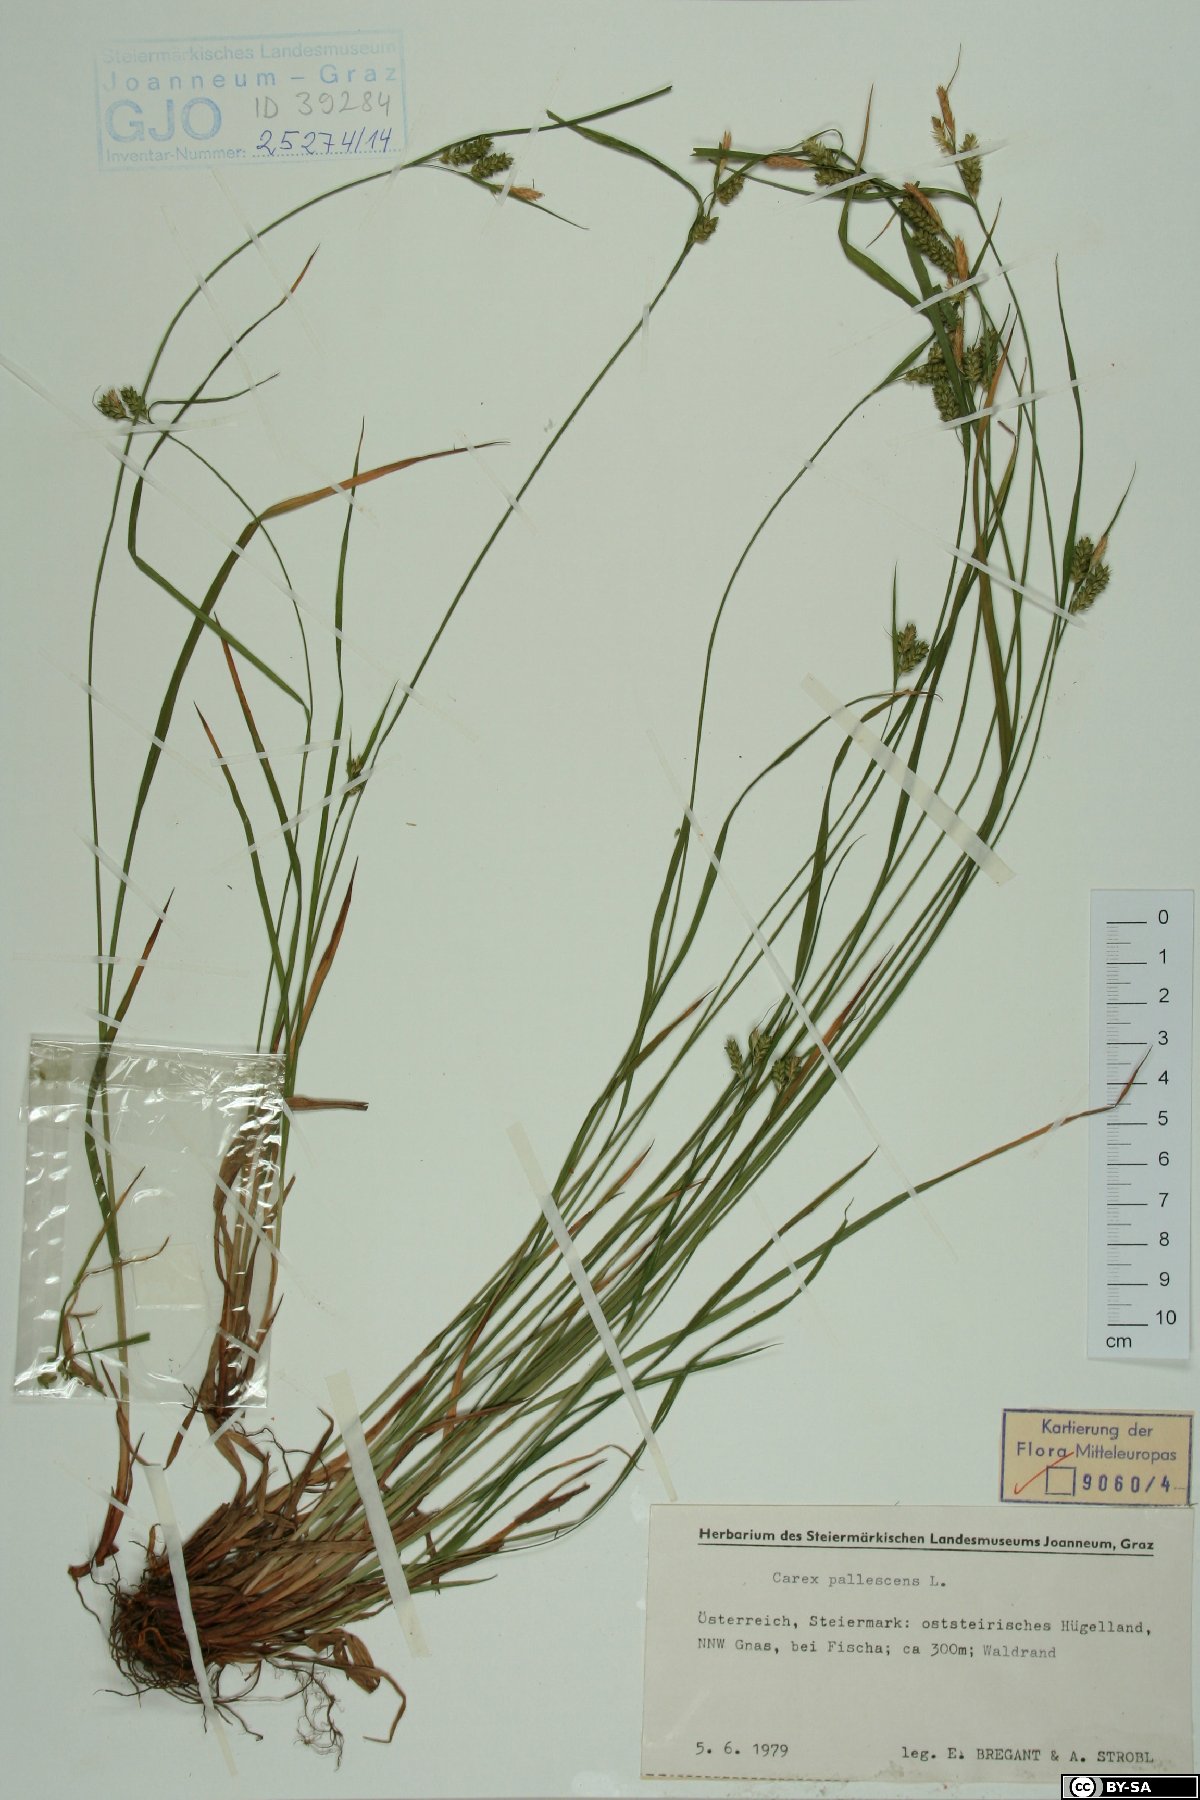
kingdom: Plantae
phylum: Tracheophyta
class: Liliopsida
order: Poales
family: Cyperaceae
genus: Carex
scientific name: Carex pallescens
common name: Pale sedge
